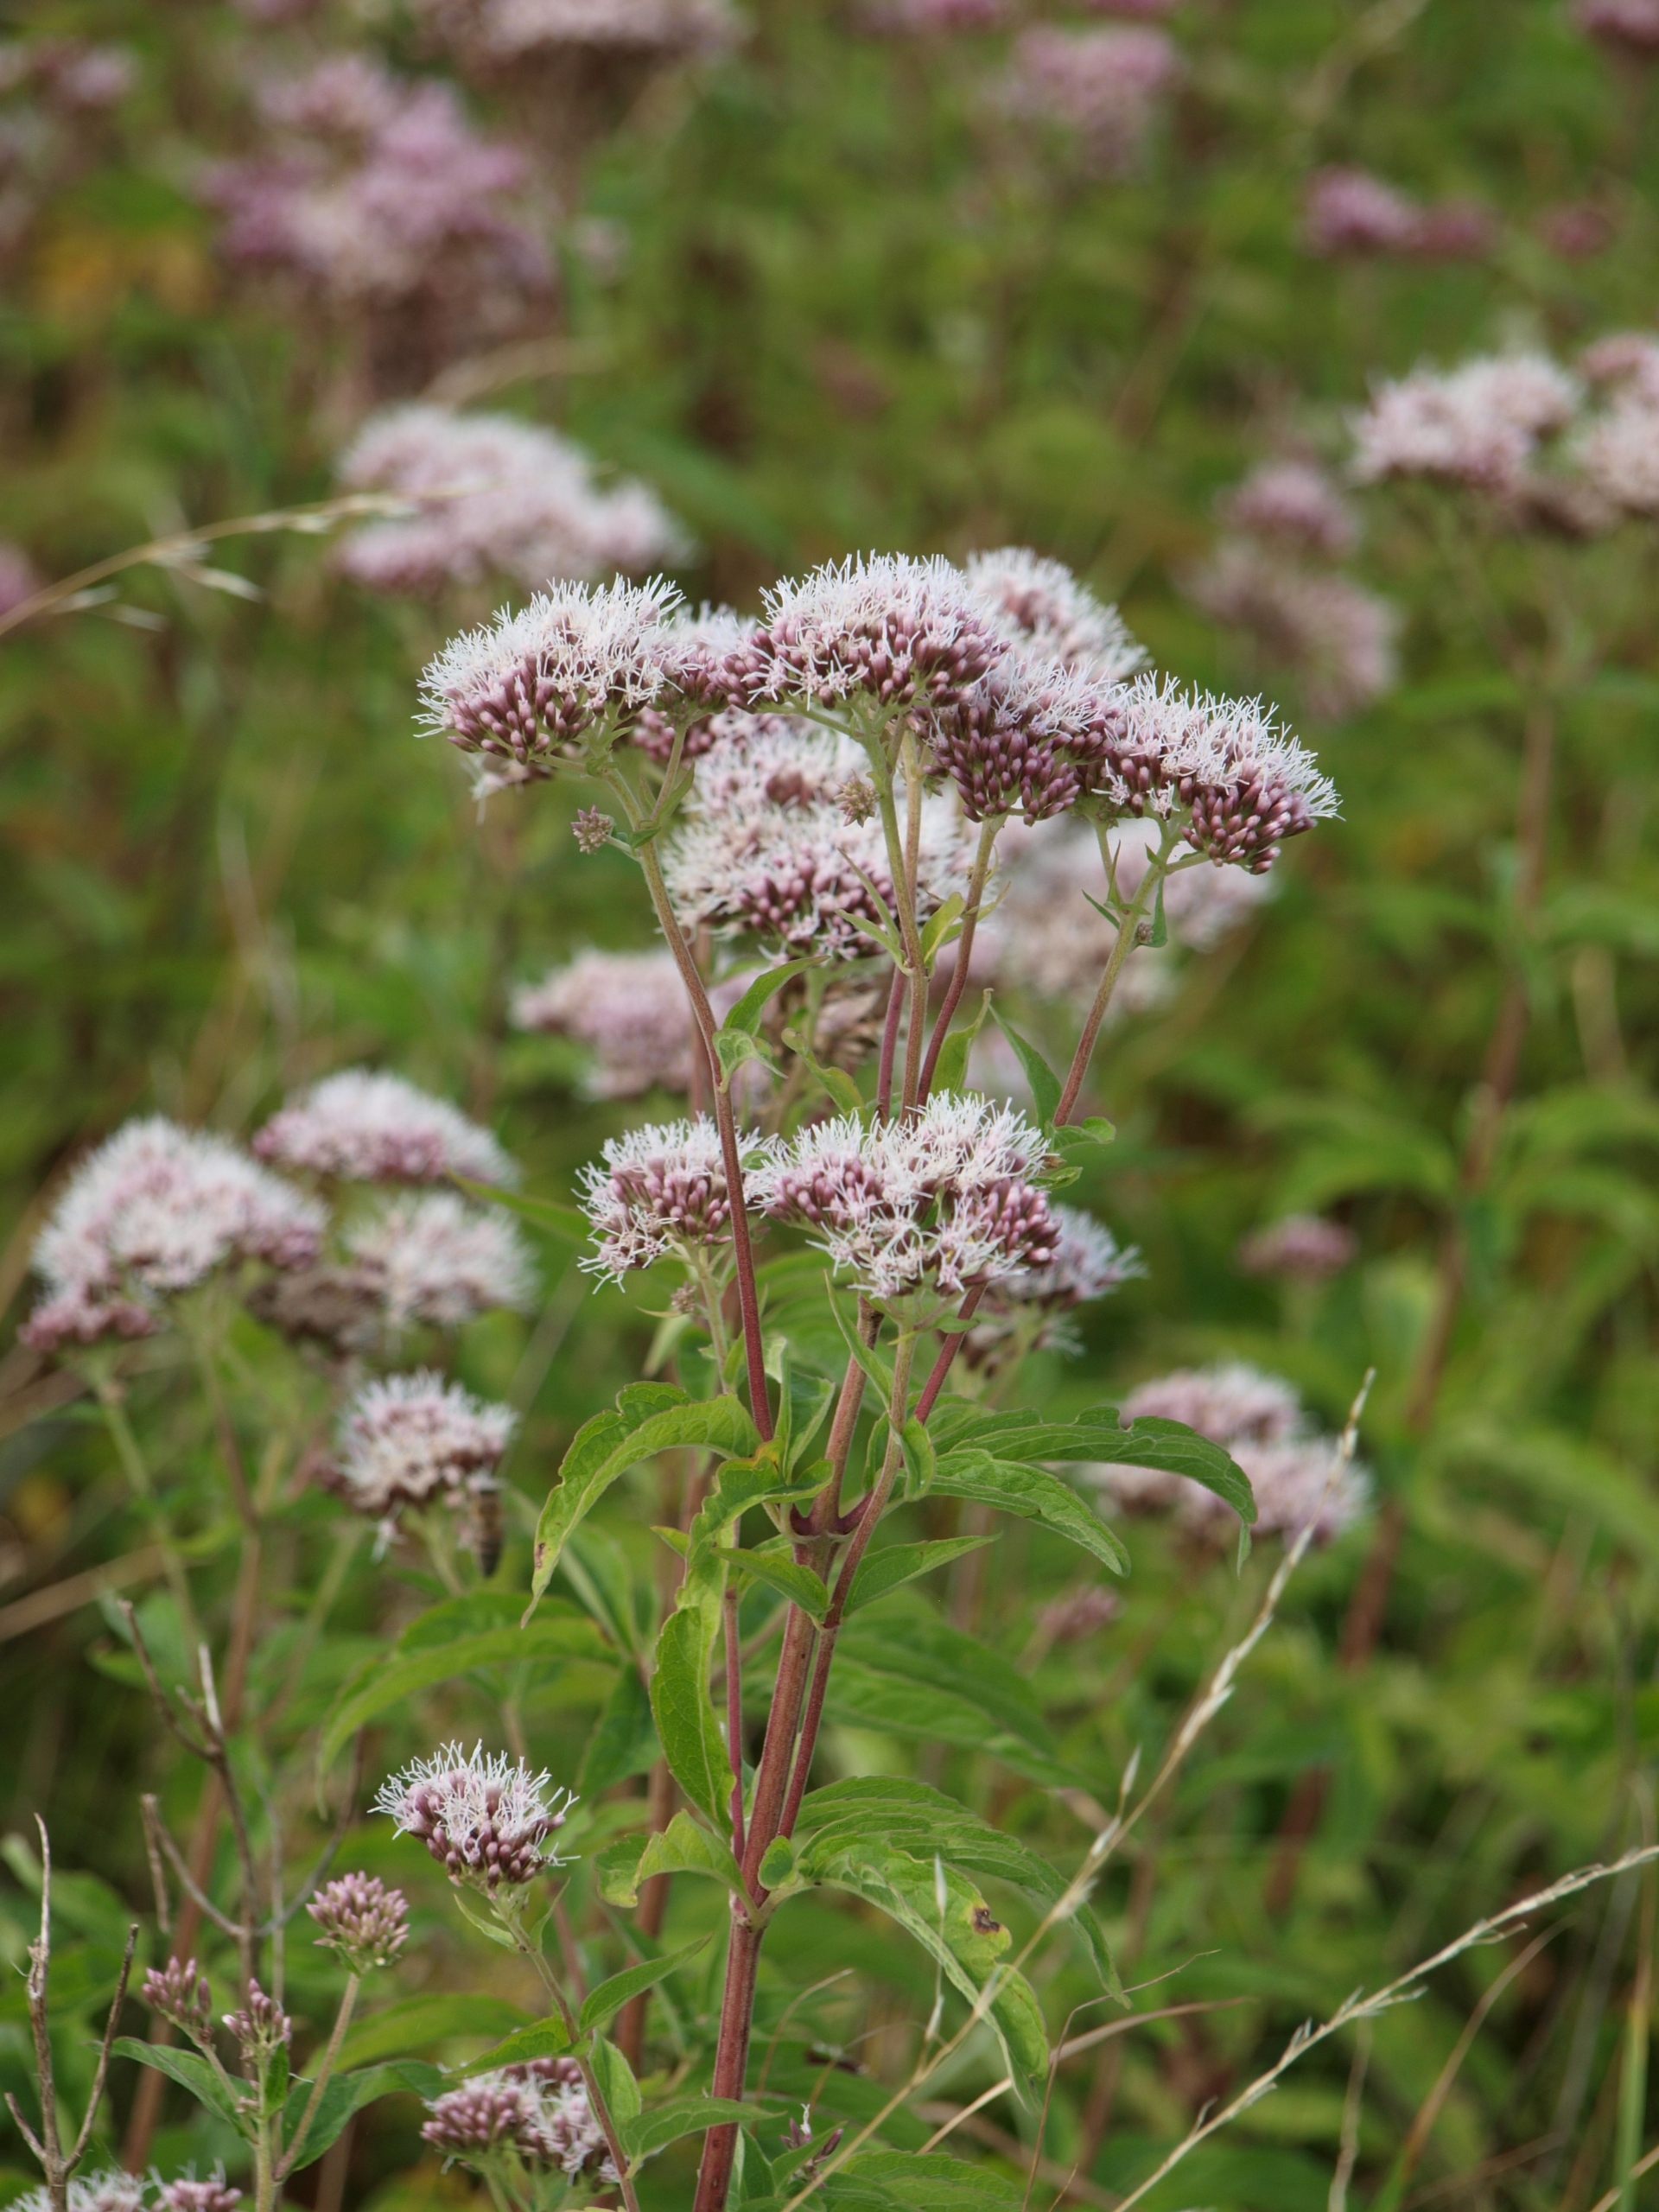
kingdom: Plantae
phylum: Tracheophyta
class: Magnoliopsida
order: Asterales
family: Asteraceae
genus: Eupatorium
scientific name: Eupatorium cannabinum
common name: Hjortetrøst
